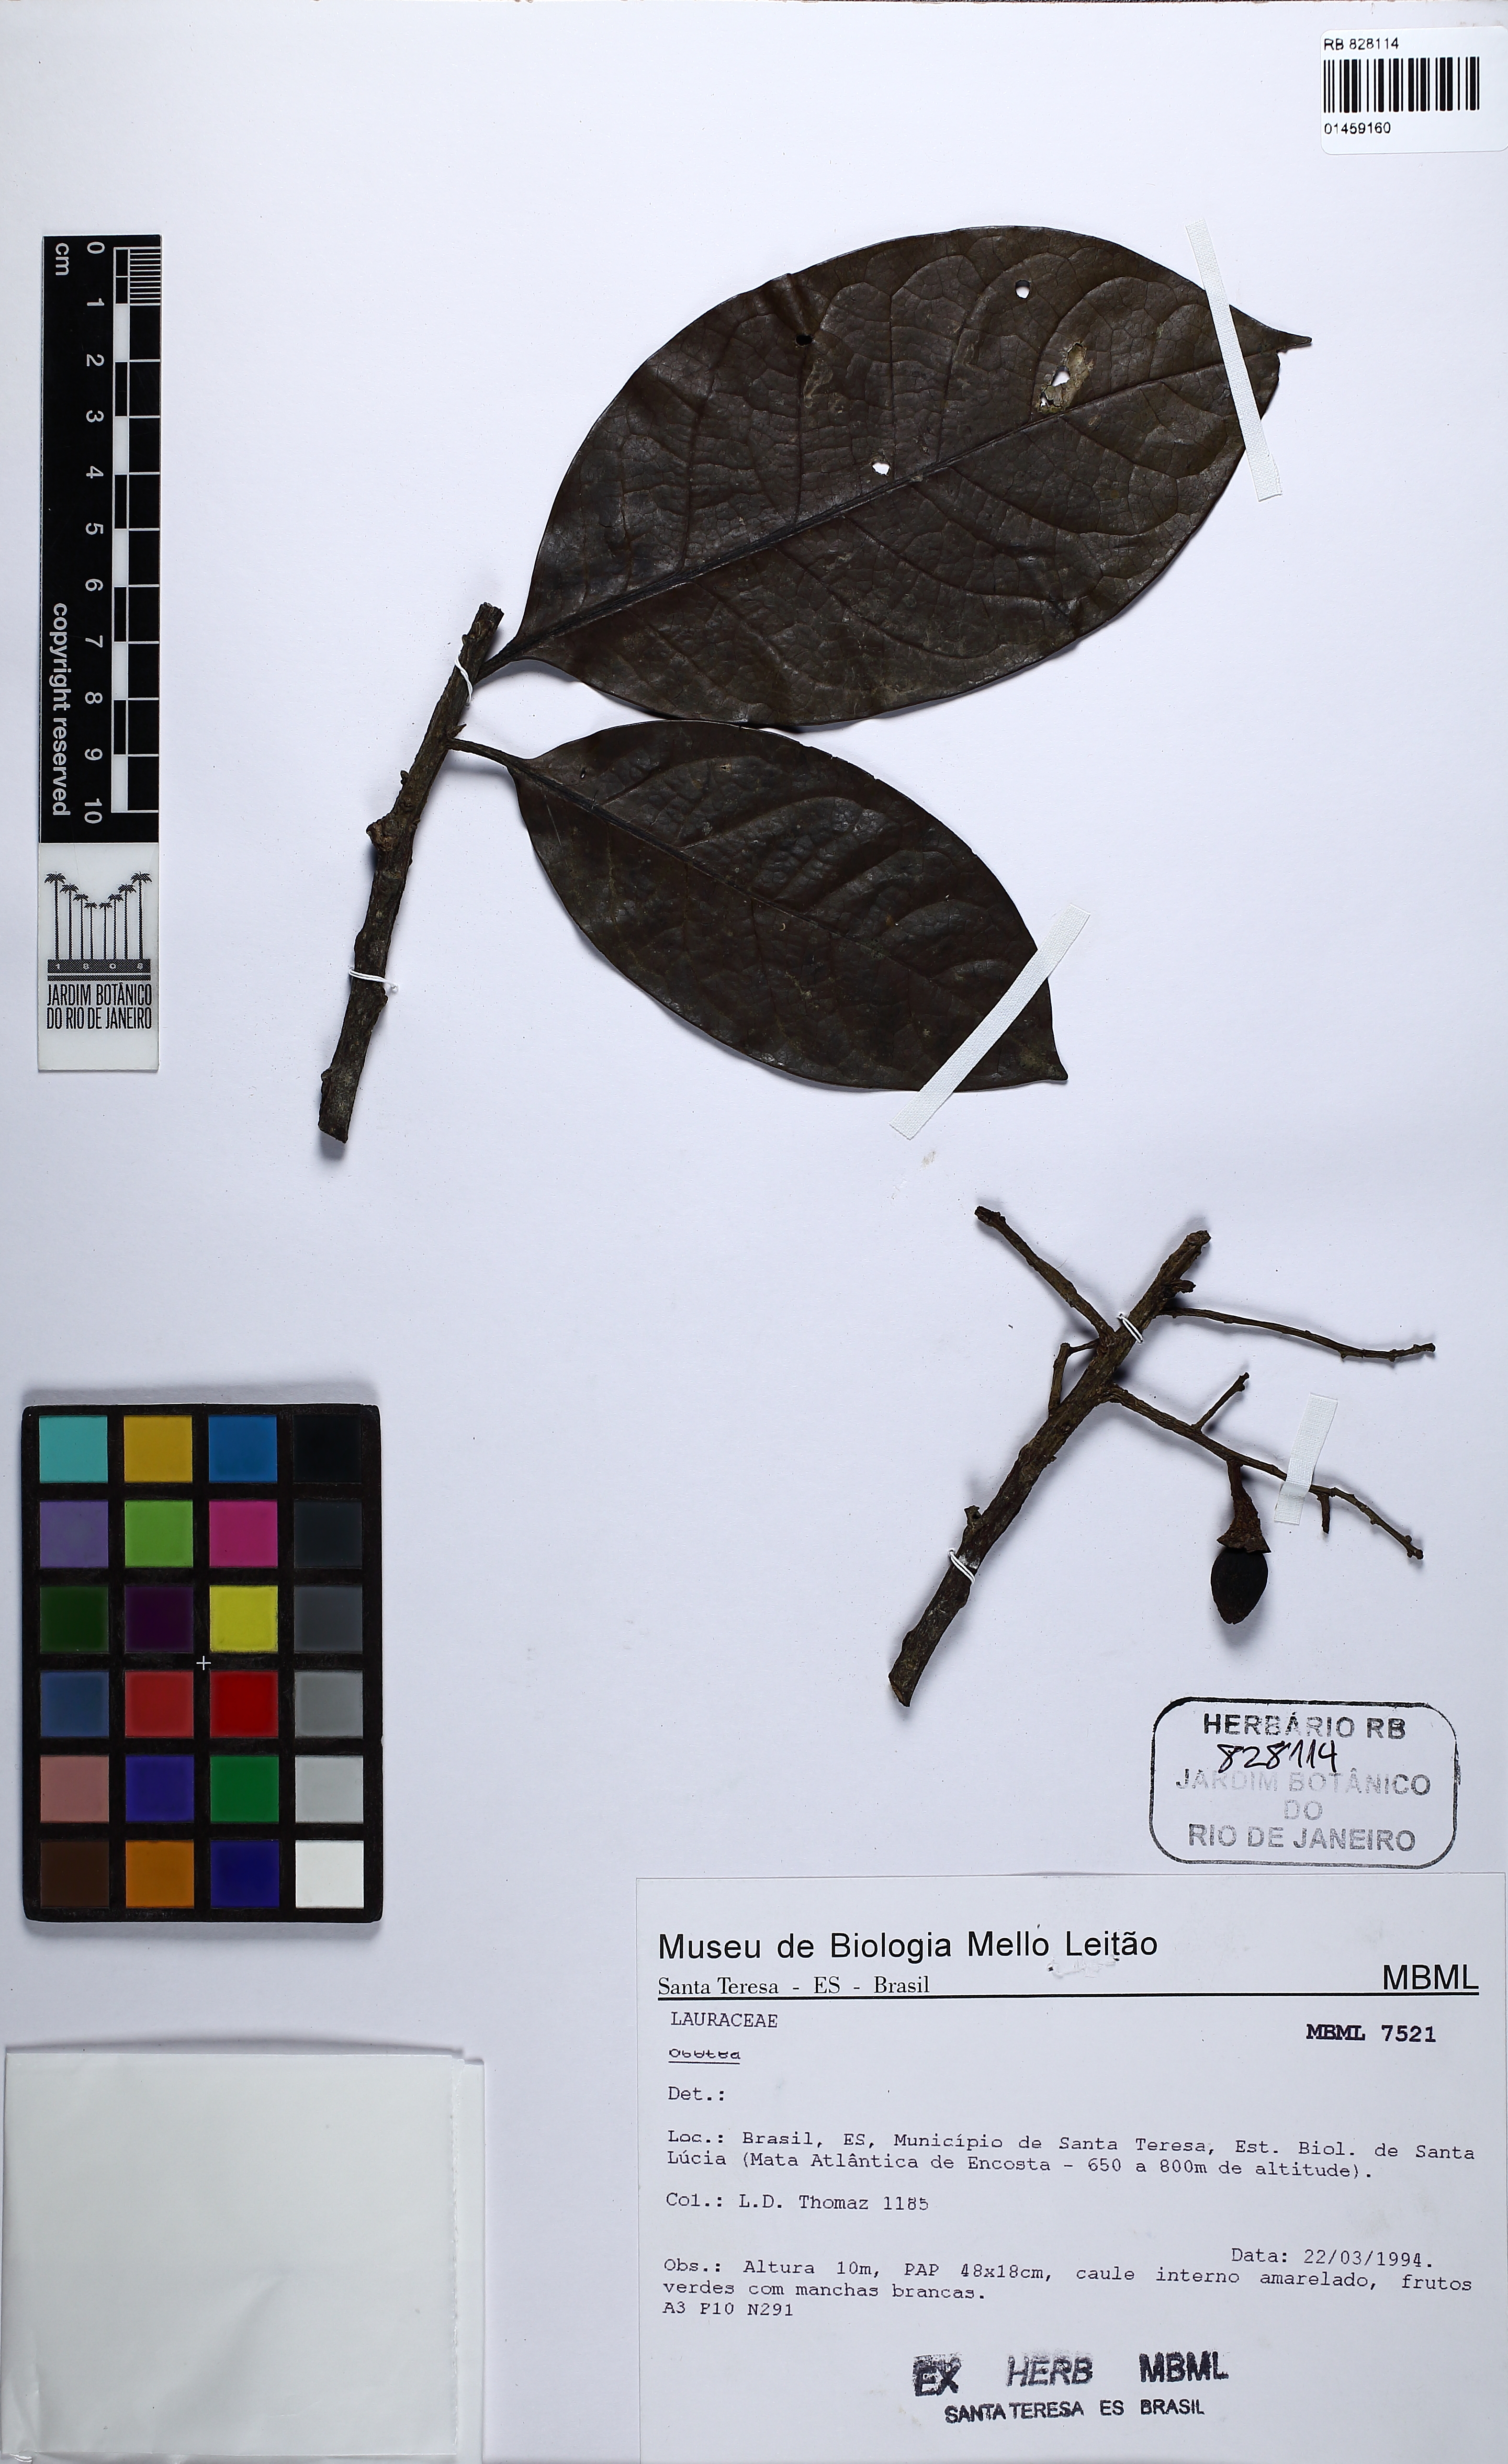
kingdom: Plantae
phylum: Tracheophyta
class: Magnoliopsida
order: Laurales
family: Lauraceae
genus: Ocotea
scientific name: Ocotea
